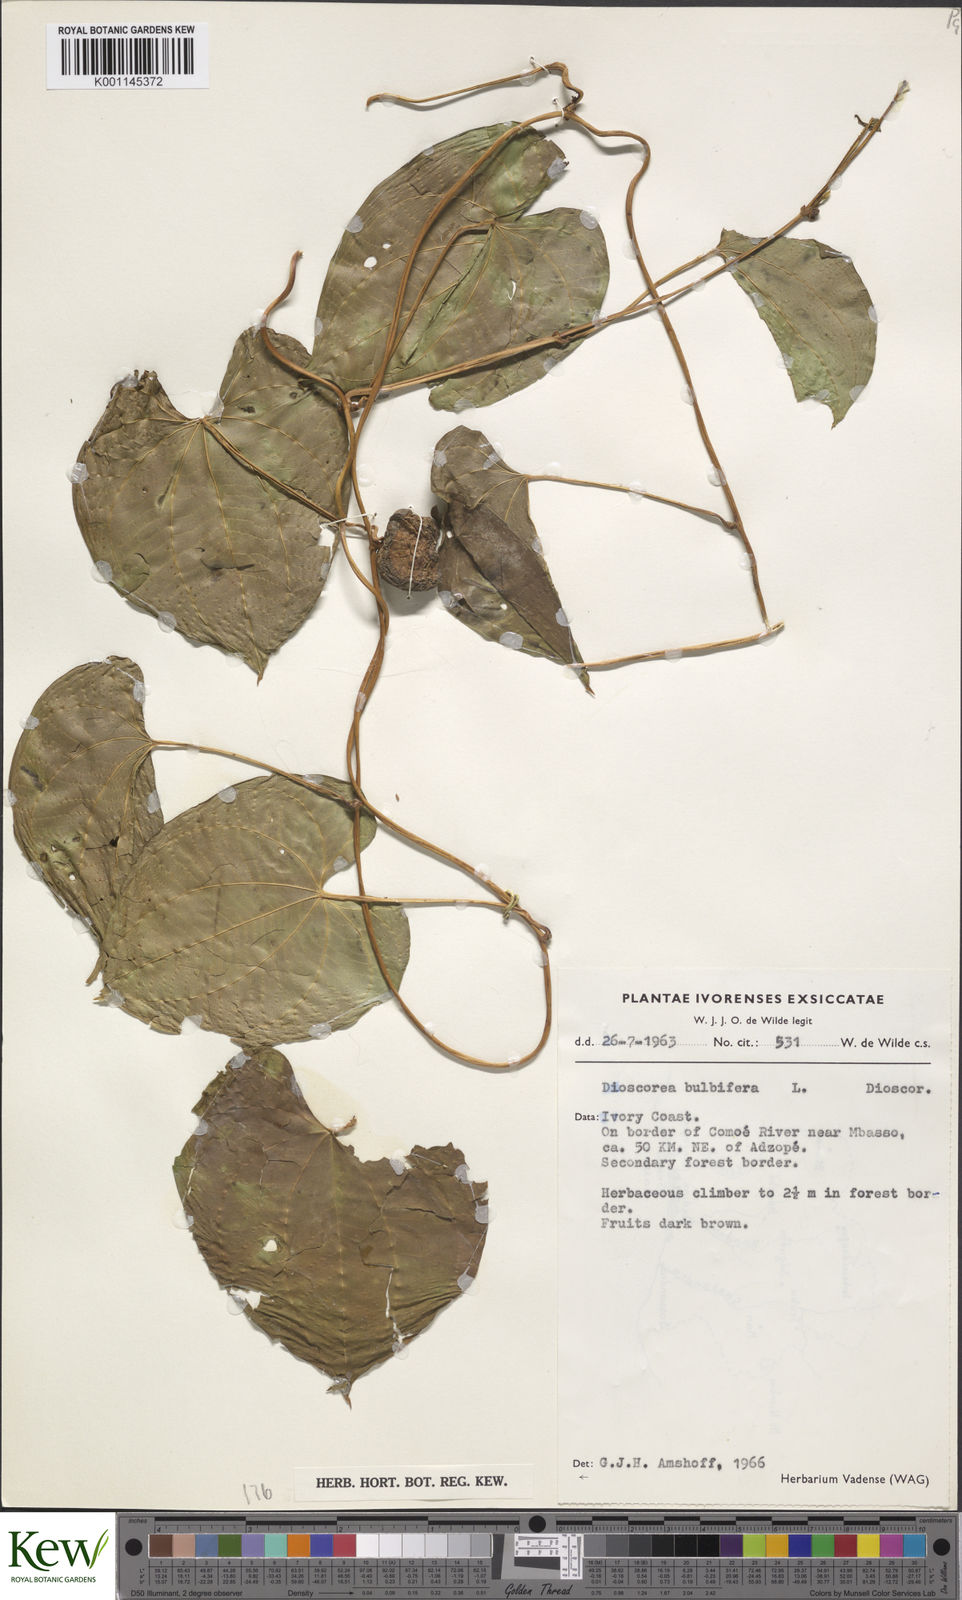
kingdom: Plantae
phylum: Tracheophyta
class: Liliopsida
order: Dioscoreales
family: Dioscoreaceae
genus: Dioscorea
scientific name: Dioscorea bulbifera
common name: Air yam
